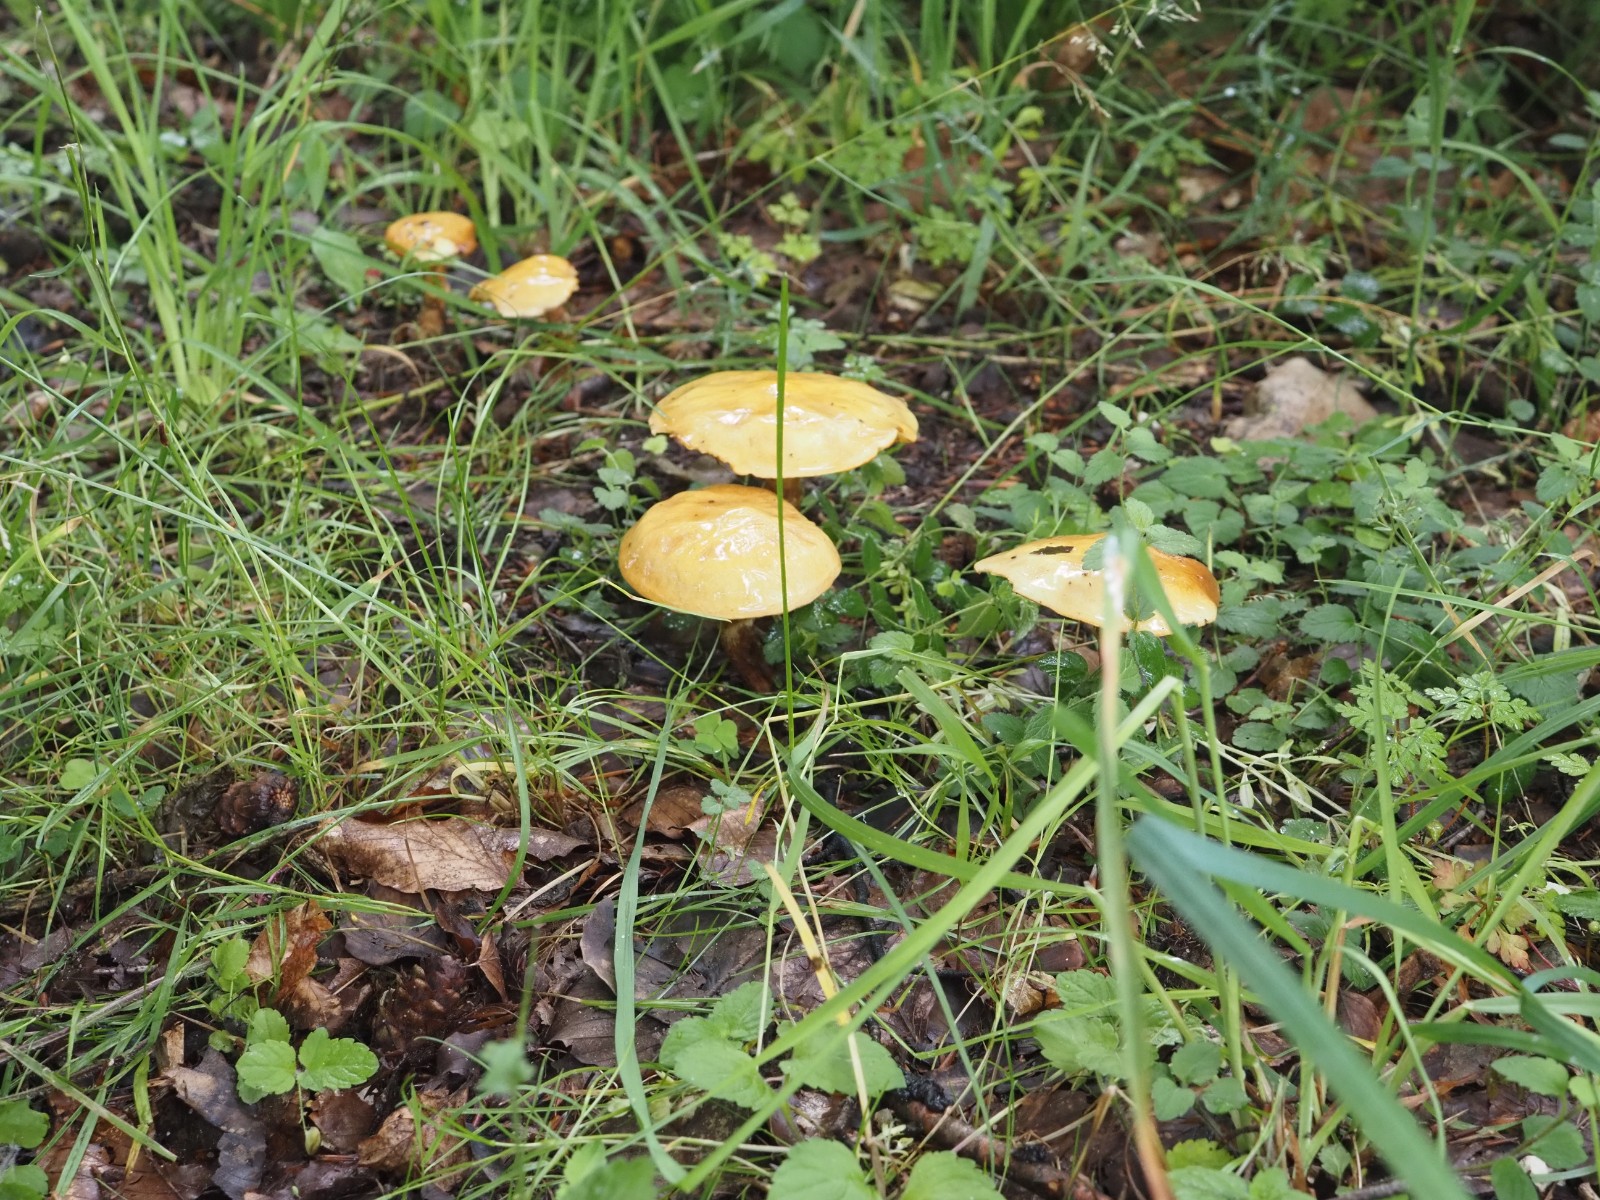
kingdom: Fungi
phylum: Basidiomycota
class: Agaricomycetes
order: Boletales
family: Suillaceae
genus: Suillus
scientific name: Suillus grevillei
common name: lærke-slimrørhat
